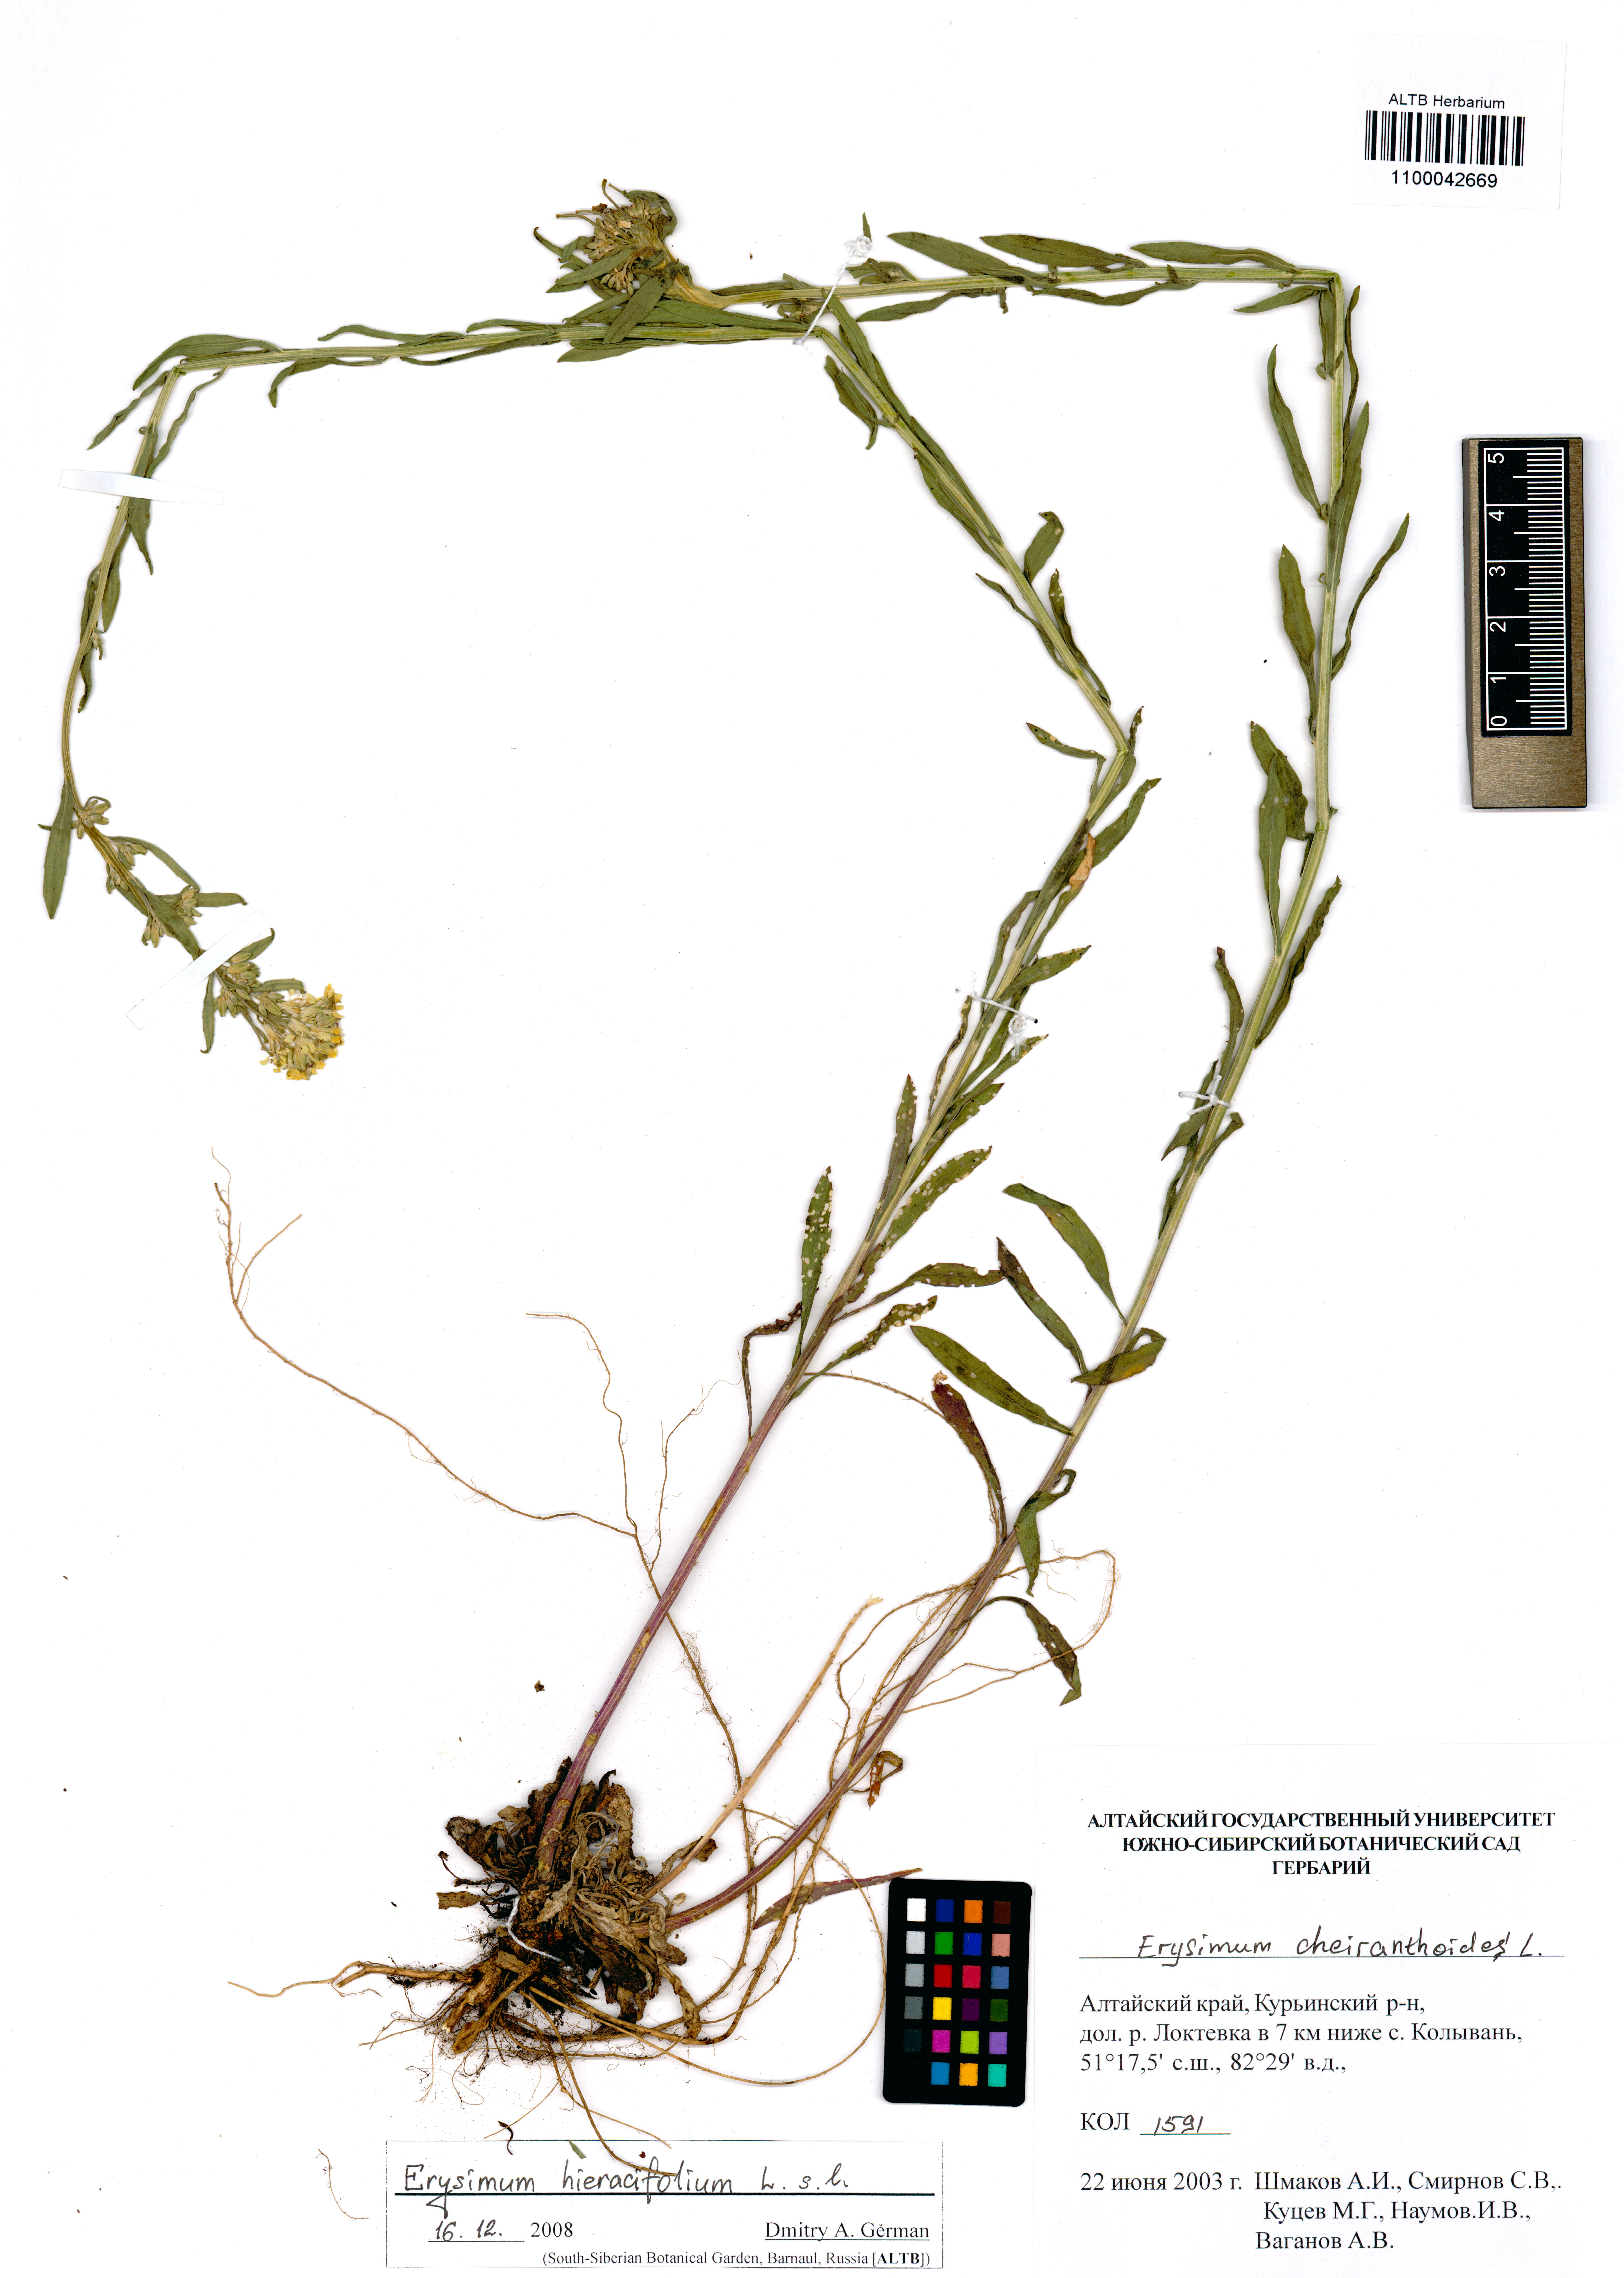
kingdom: Plantae
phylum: Tracheophyta
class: Magnoliopsida
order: Brassicales
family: Brassicaceae
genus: Erysimum
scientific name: Erysimum hieraciifolium
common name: European wallflower
